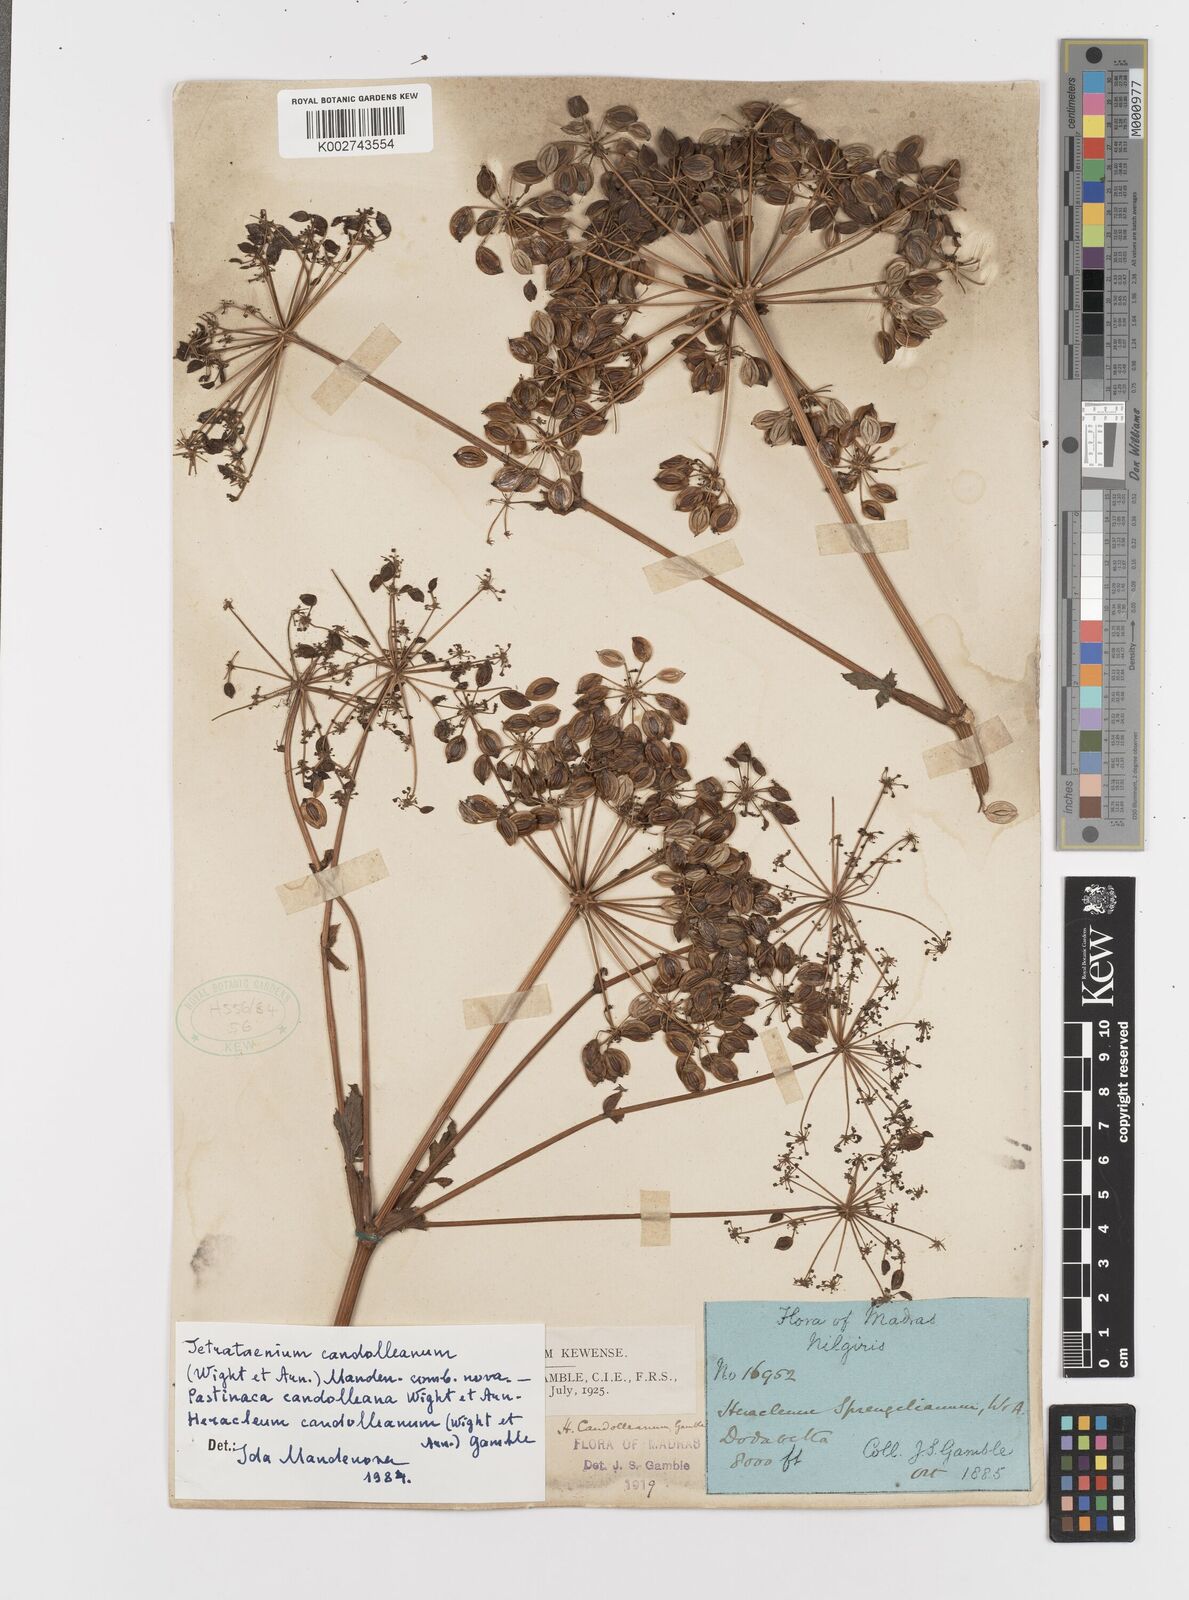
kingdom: Plantae
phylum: Tracheophyta
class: Magnoliopsida
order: Apiales
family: Apiaceae
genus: Tetrataenium
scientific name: Tetrataenium rigens
